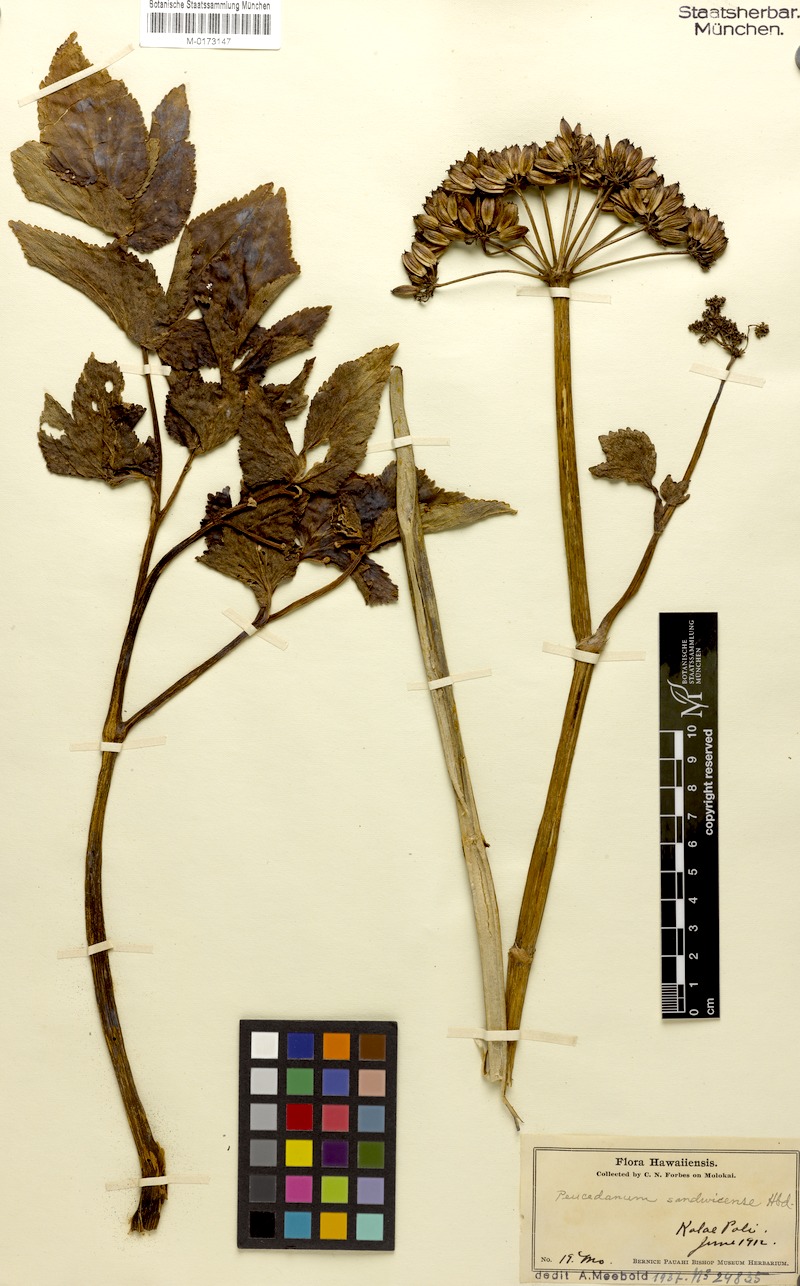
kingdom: Plantae
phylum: Tracheophyta
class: Magnoliopsida
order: Apiales
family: Apiaceae
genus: Peucedanum
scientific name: Peucedanum sandwicense
